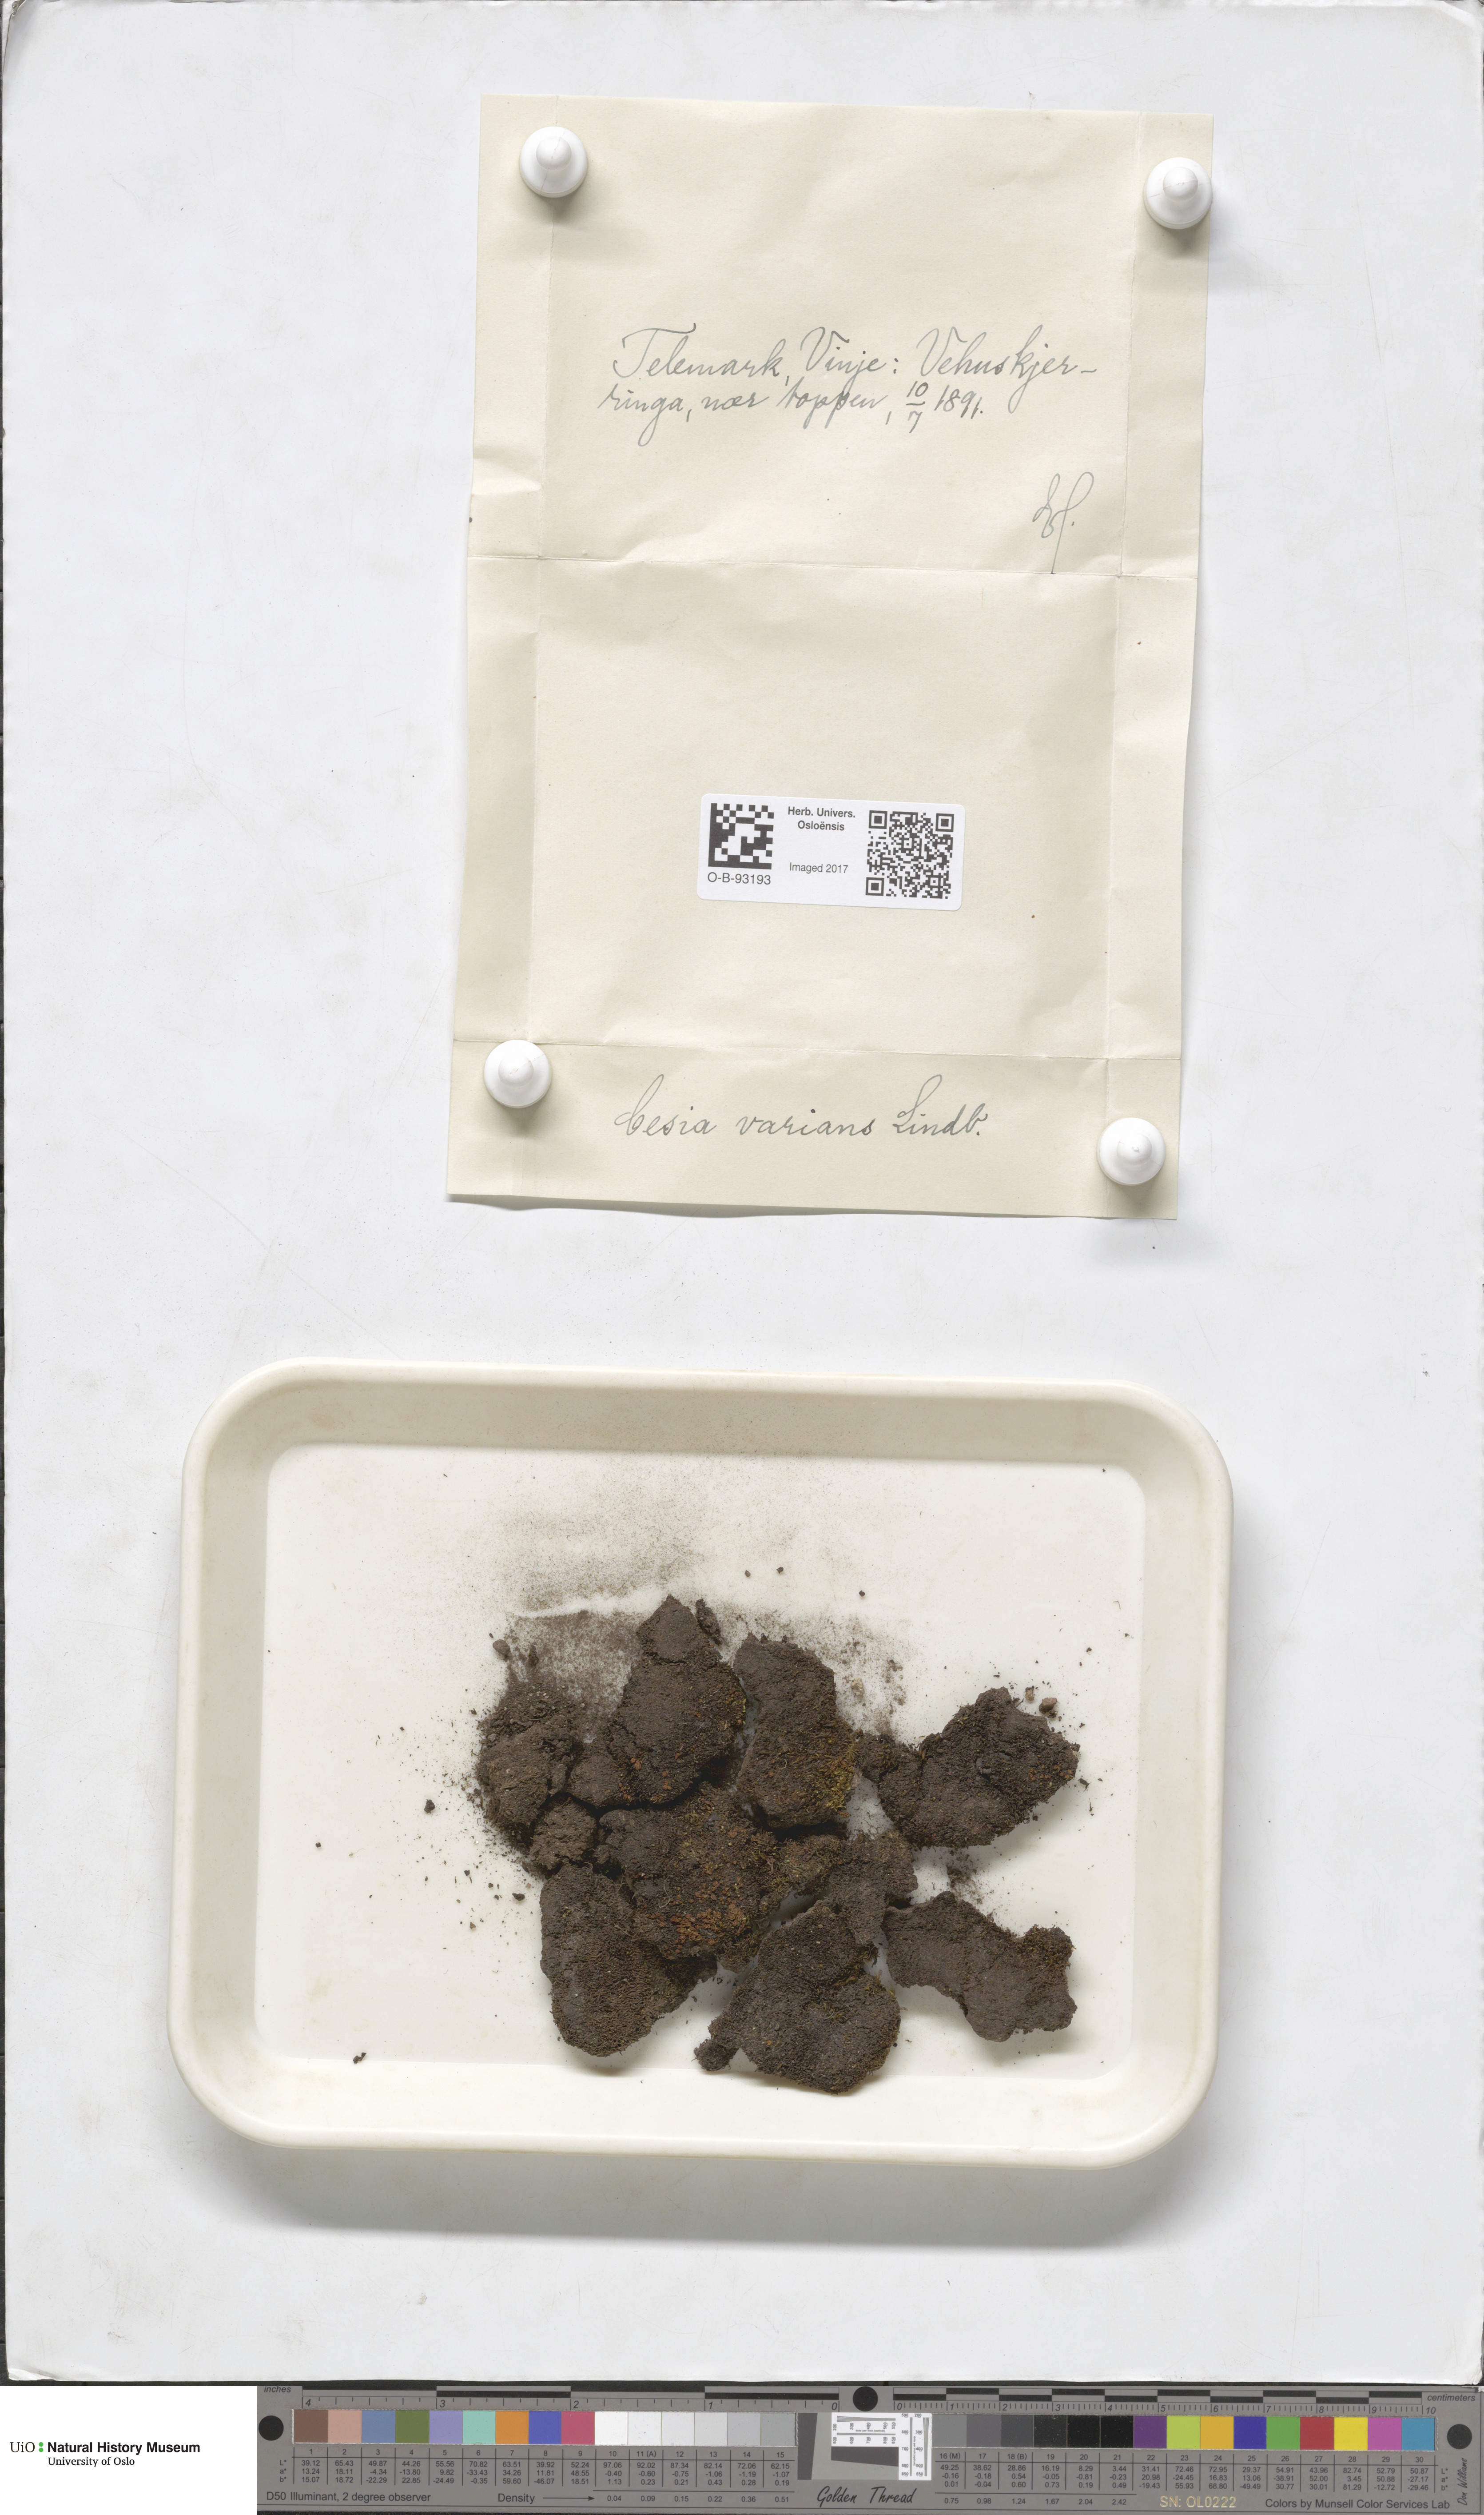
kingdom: Plantae
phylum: Marchantiophyta
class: Jungermanniopsida
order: Jungermanniales
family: Gymnomitriaceae
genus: Gymnomitrion
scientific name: Gymnomitrion brevissimum
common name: Snow rustwort
